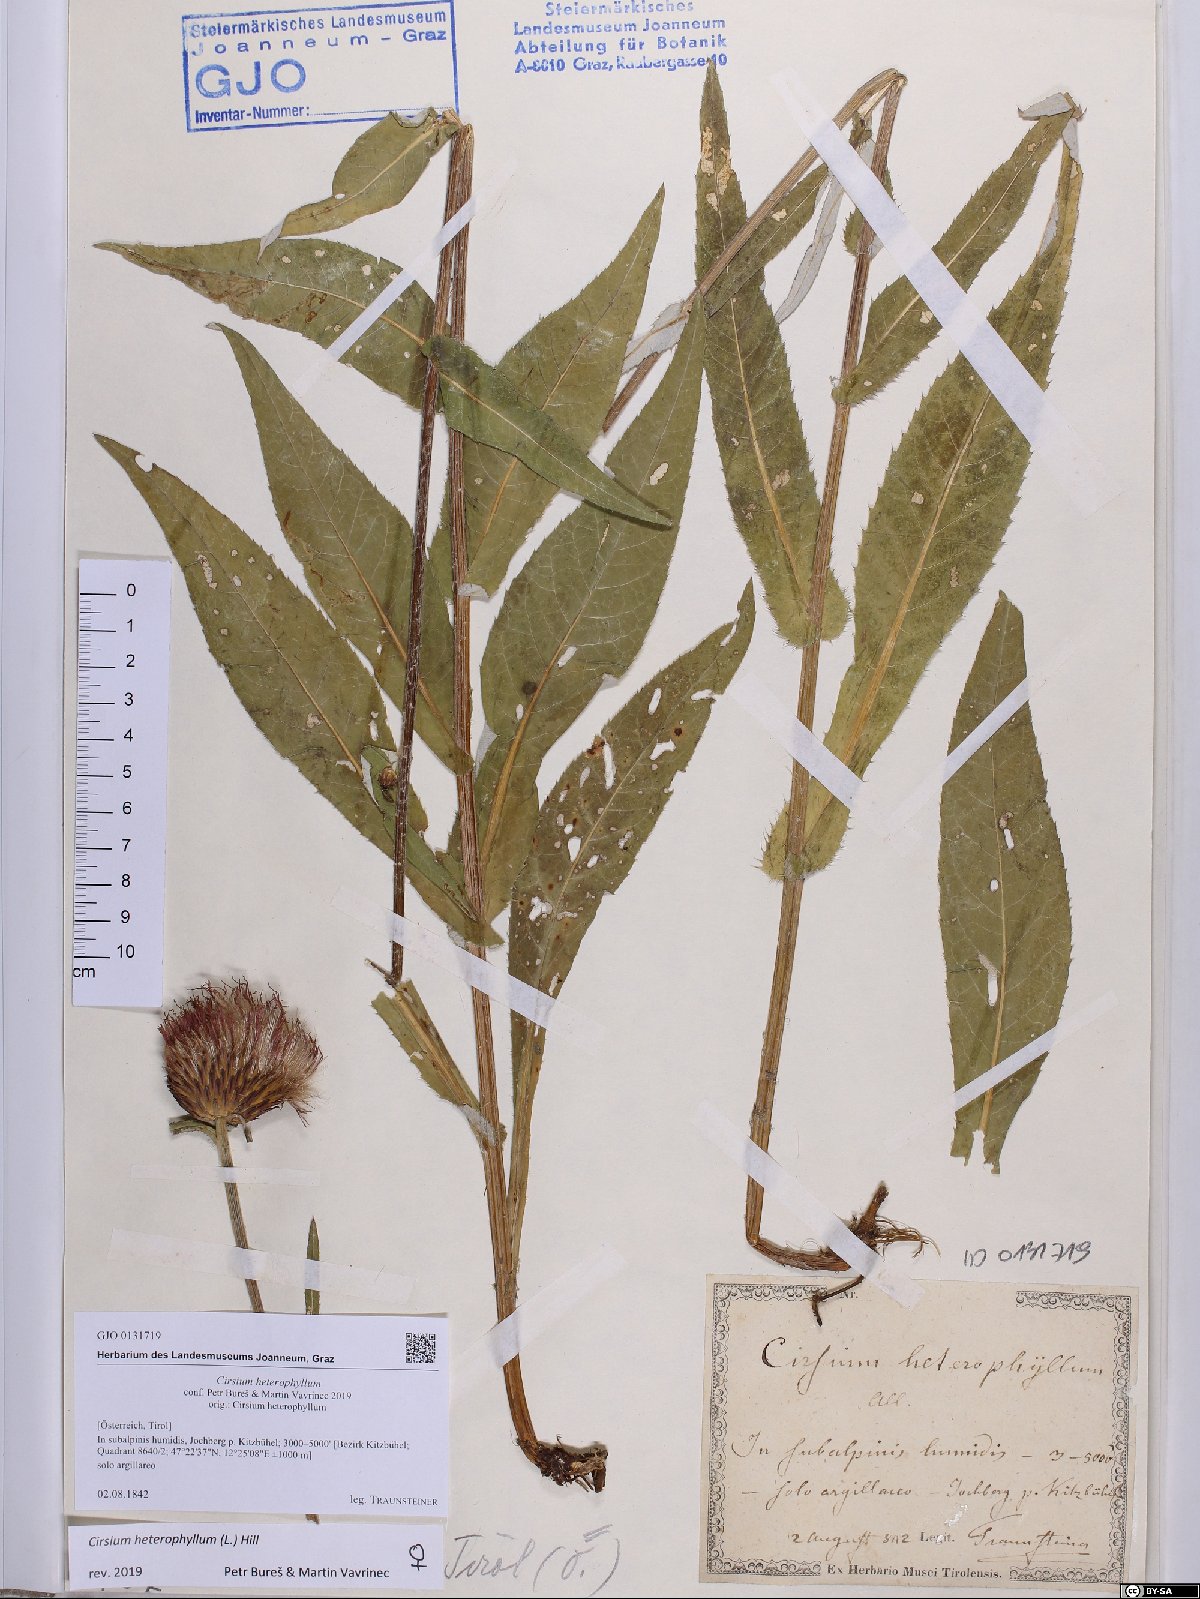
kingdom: Plantae
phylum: Tracheophyta
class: Magnoliopsida
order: Asterales
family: Asteraceae
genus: Cirsium
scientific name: Cirsium heterophyllum
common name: Melancholy thistle
